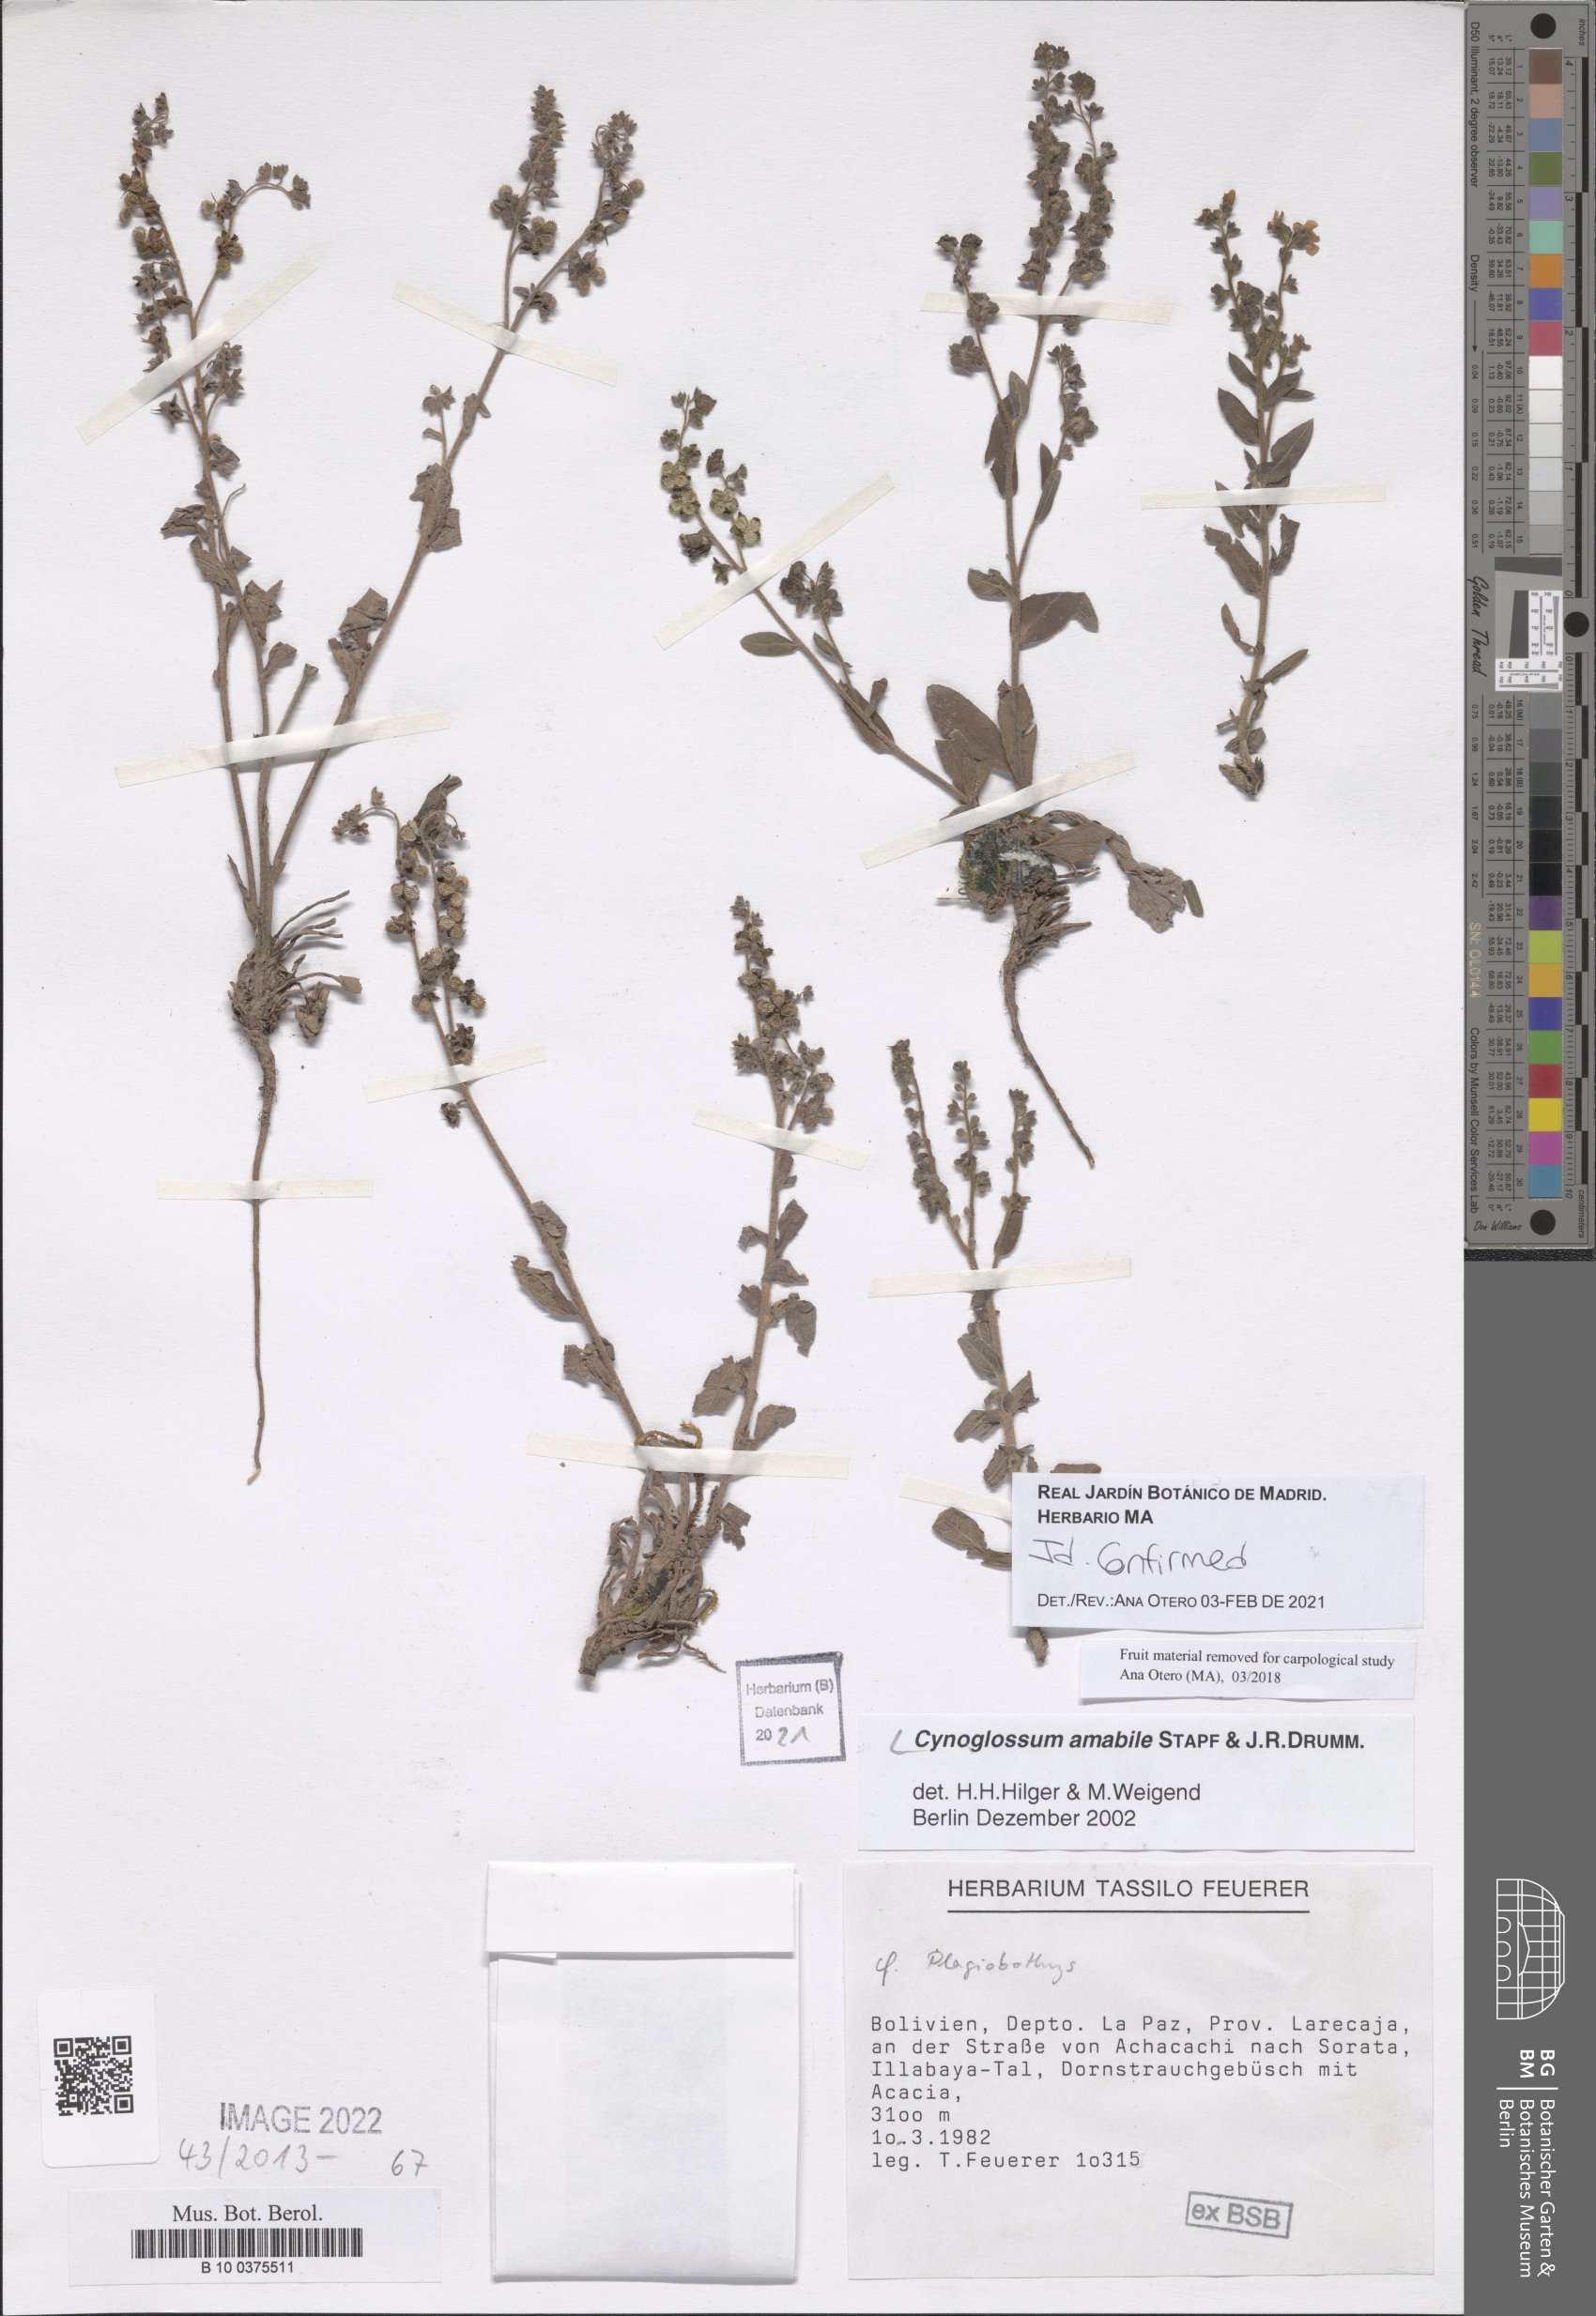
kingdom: Plantae
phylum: Tracheophyta
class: Magnoliopsida
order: Boraginales
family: Boraginaceae
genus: Cynoglossum
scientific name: Cynoglossum amabile
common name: Chinese hound's tongue
